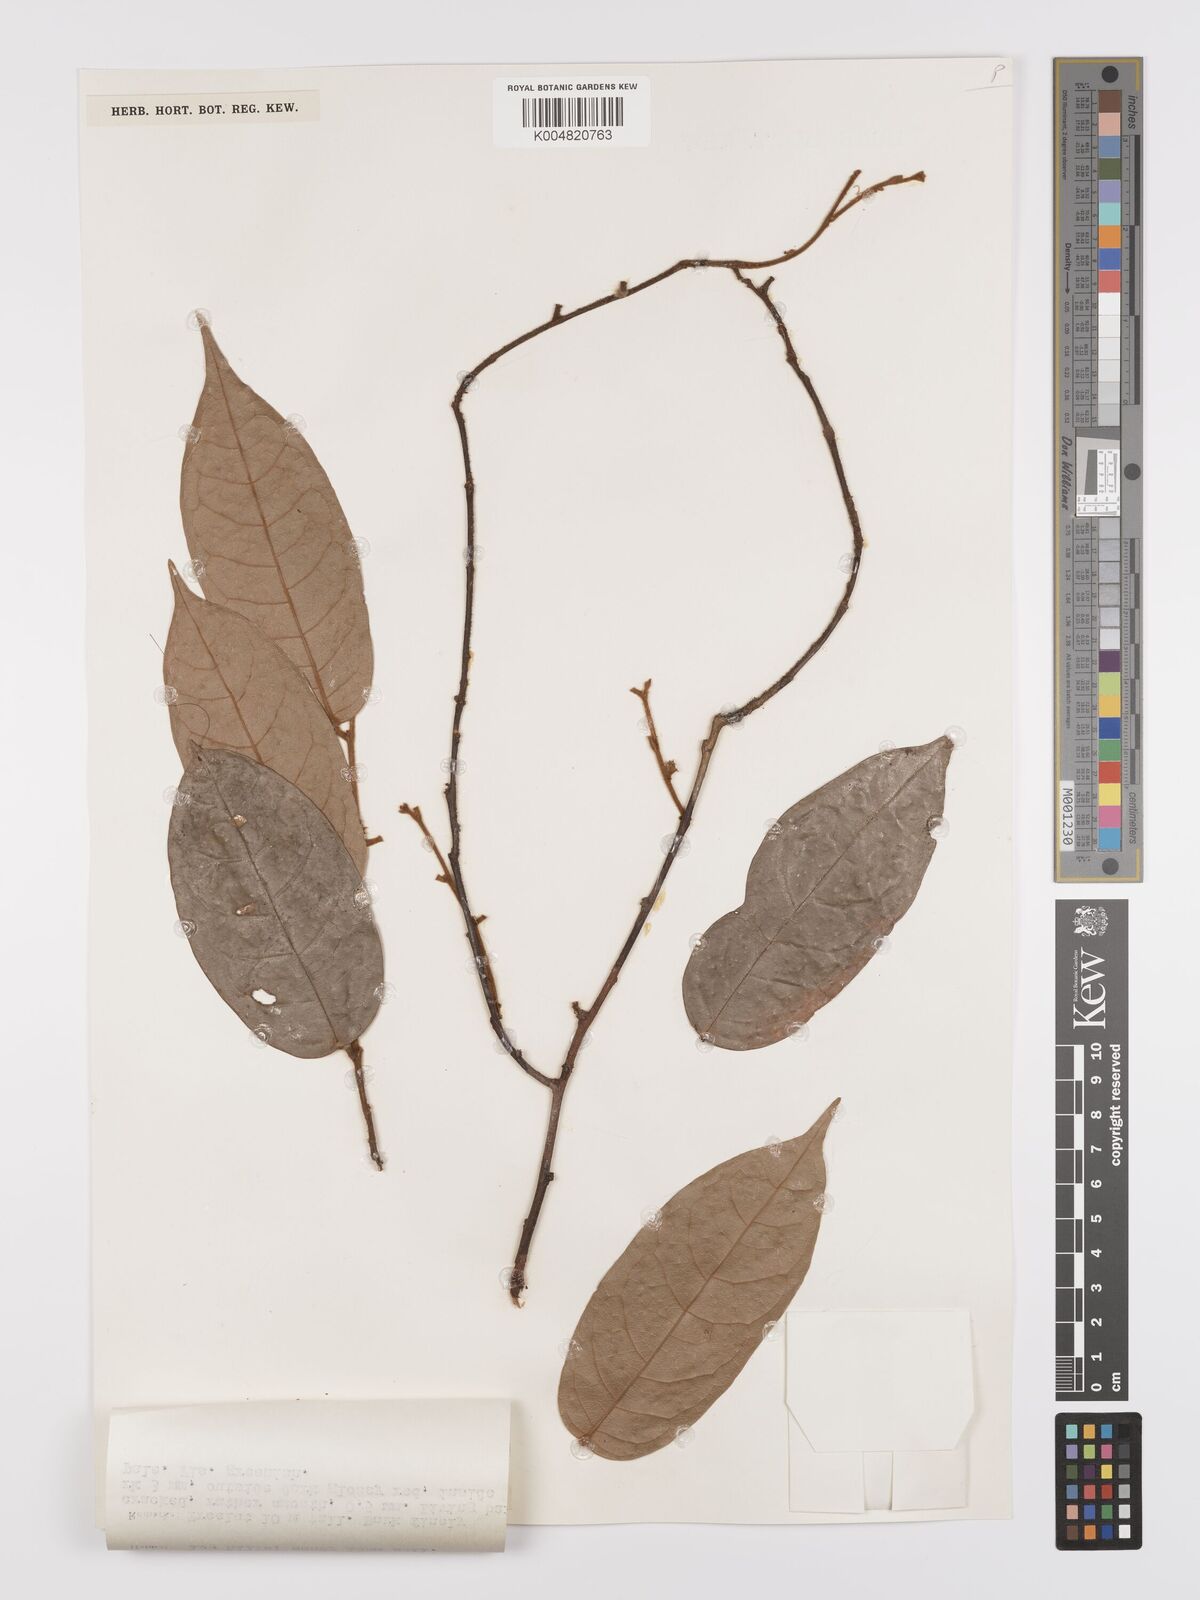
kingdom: Plantae
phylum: Tracheophyta
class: Magnoliopsida
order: Oxalidales
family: Connaraceae
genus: Ellipanthus
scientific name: Ellipanthus beccarii
